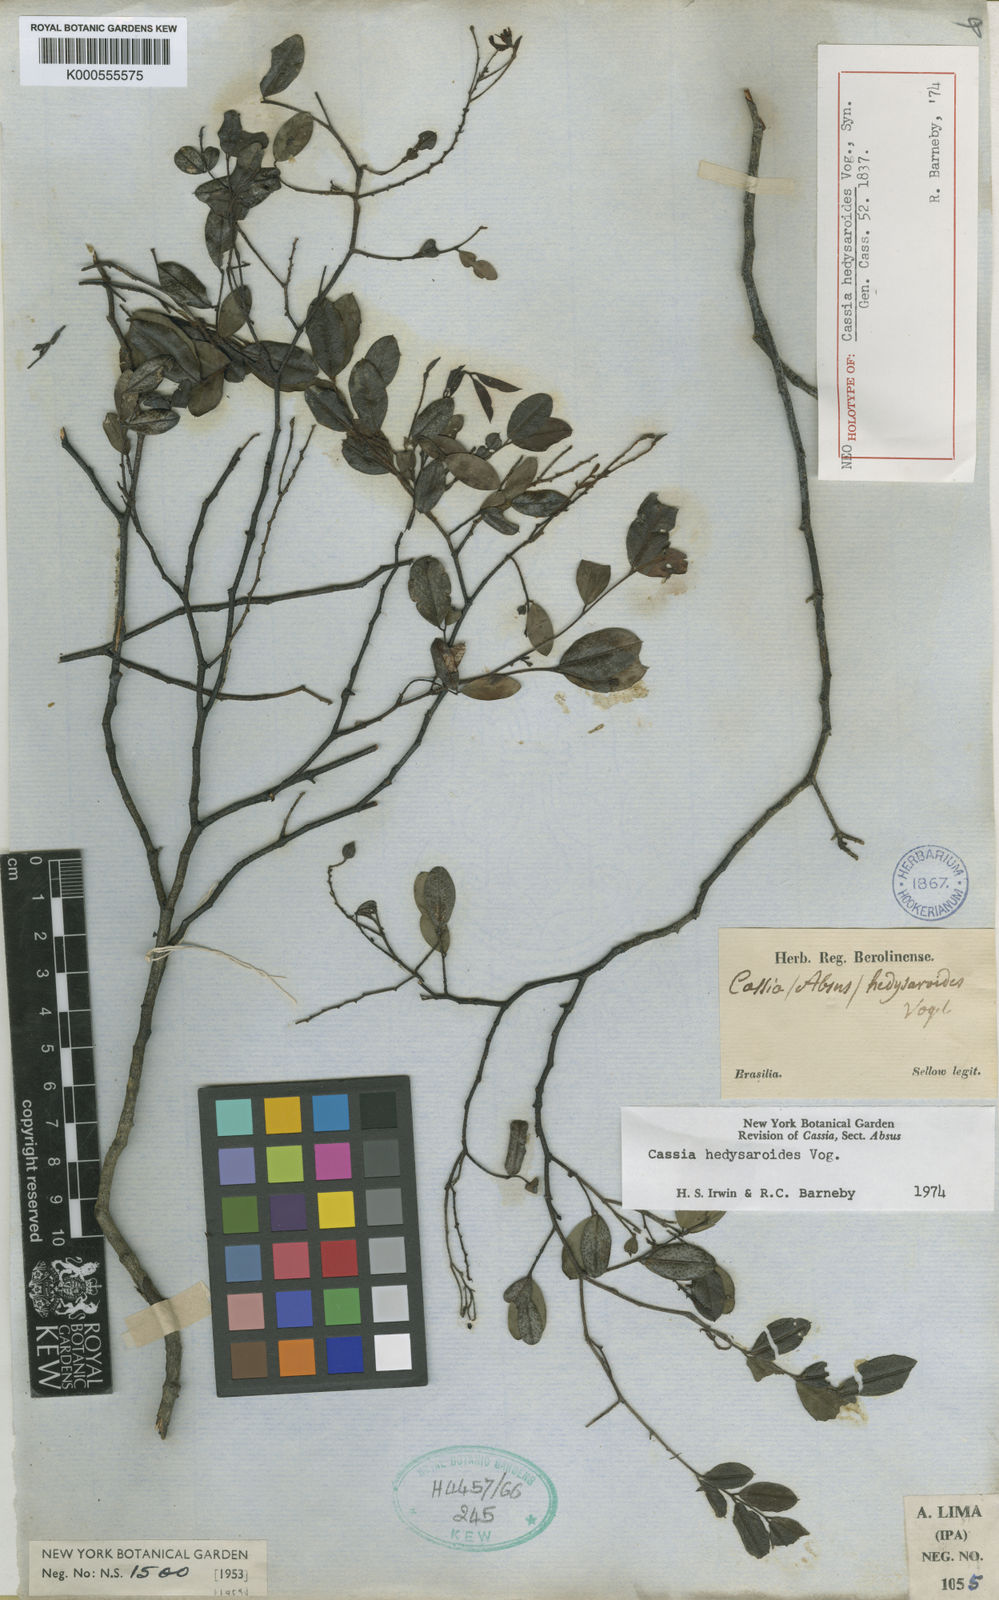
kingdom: Plantae
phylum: Tracheophyta
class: Magnoliopsida
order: Fabales
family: Fabaceae
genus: Chamaecrista
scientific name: Chamaecrista hedysaroides
